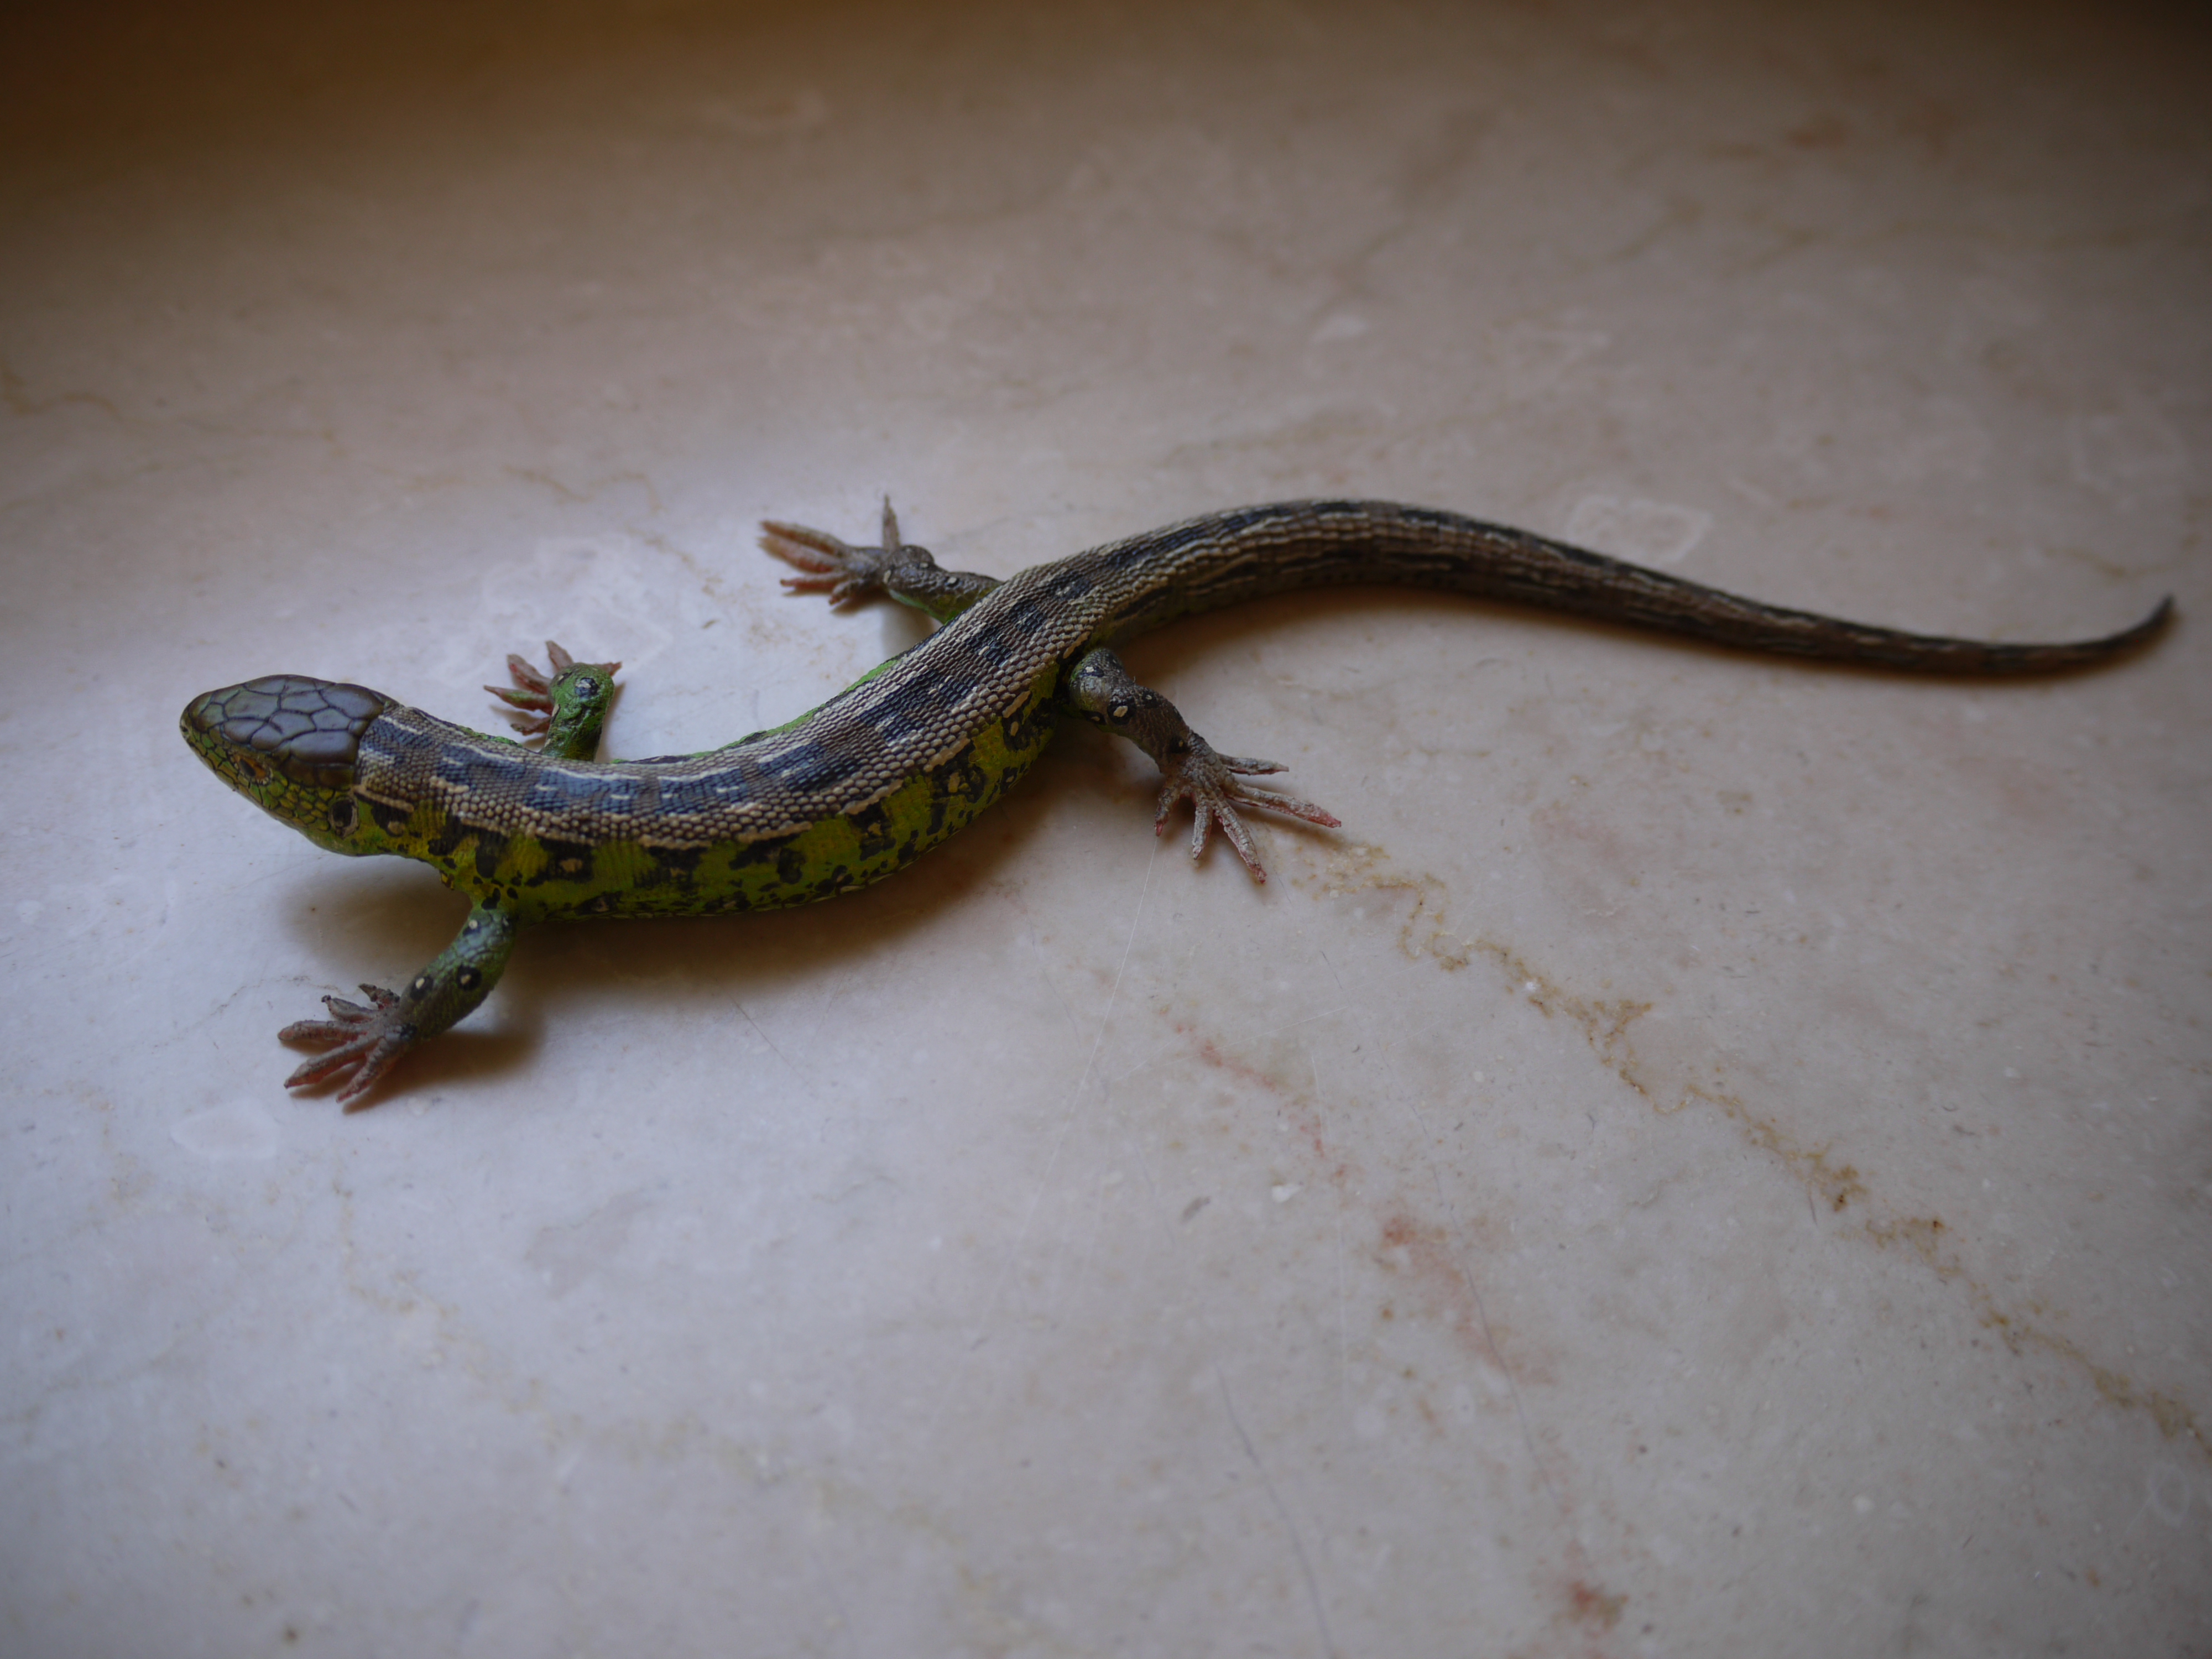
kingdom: Animalia
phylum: Chordata
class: Squamata
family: Lacertidae
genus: Lacerta
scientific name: Lacerta agilis
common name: Sand lizard
